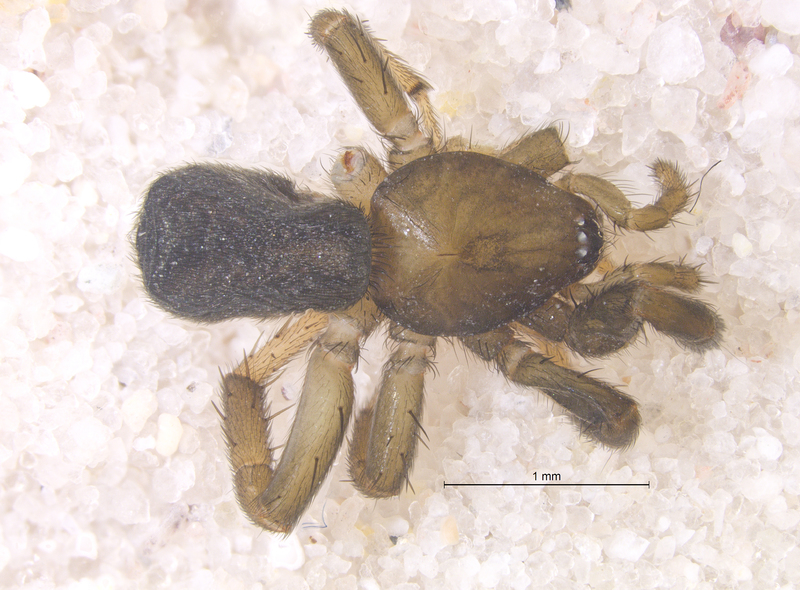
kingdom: Animalia
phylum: Arthropoda
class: Arachnida
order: Araneae
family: Gnaphosidae
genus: Drassyllus
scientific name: Drassyllus pusillus
